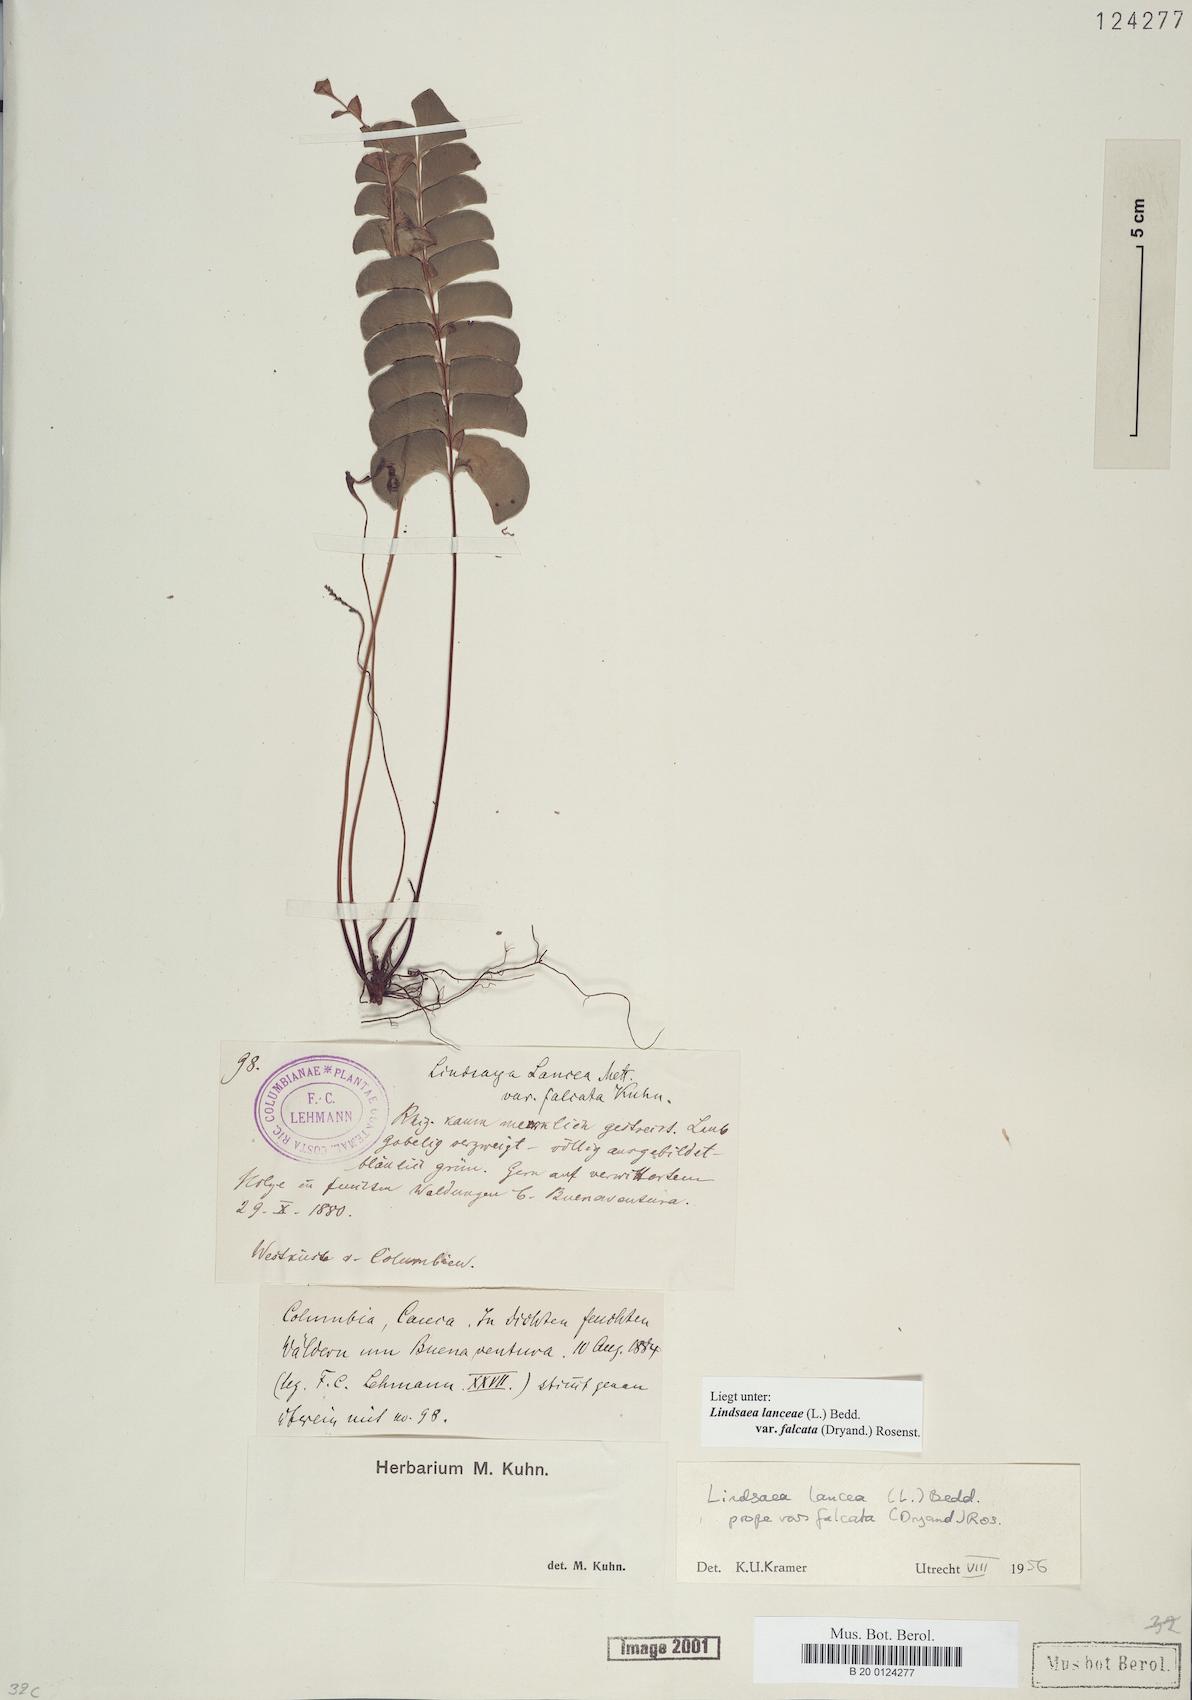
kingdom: Plantae
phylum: Tracheophyta
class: Polypodiopsida
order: Polypodiales
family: Lindsaeaceae
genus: Lindsaea
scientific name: Lindsaea falcata
